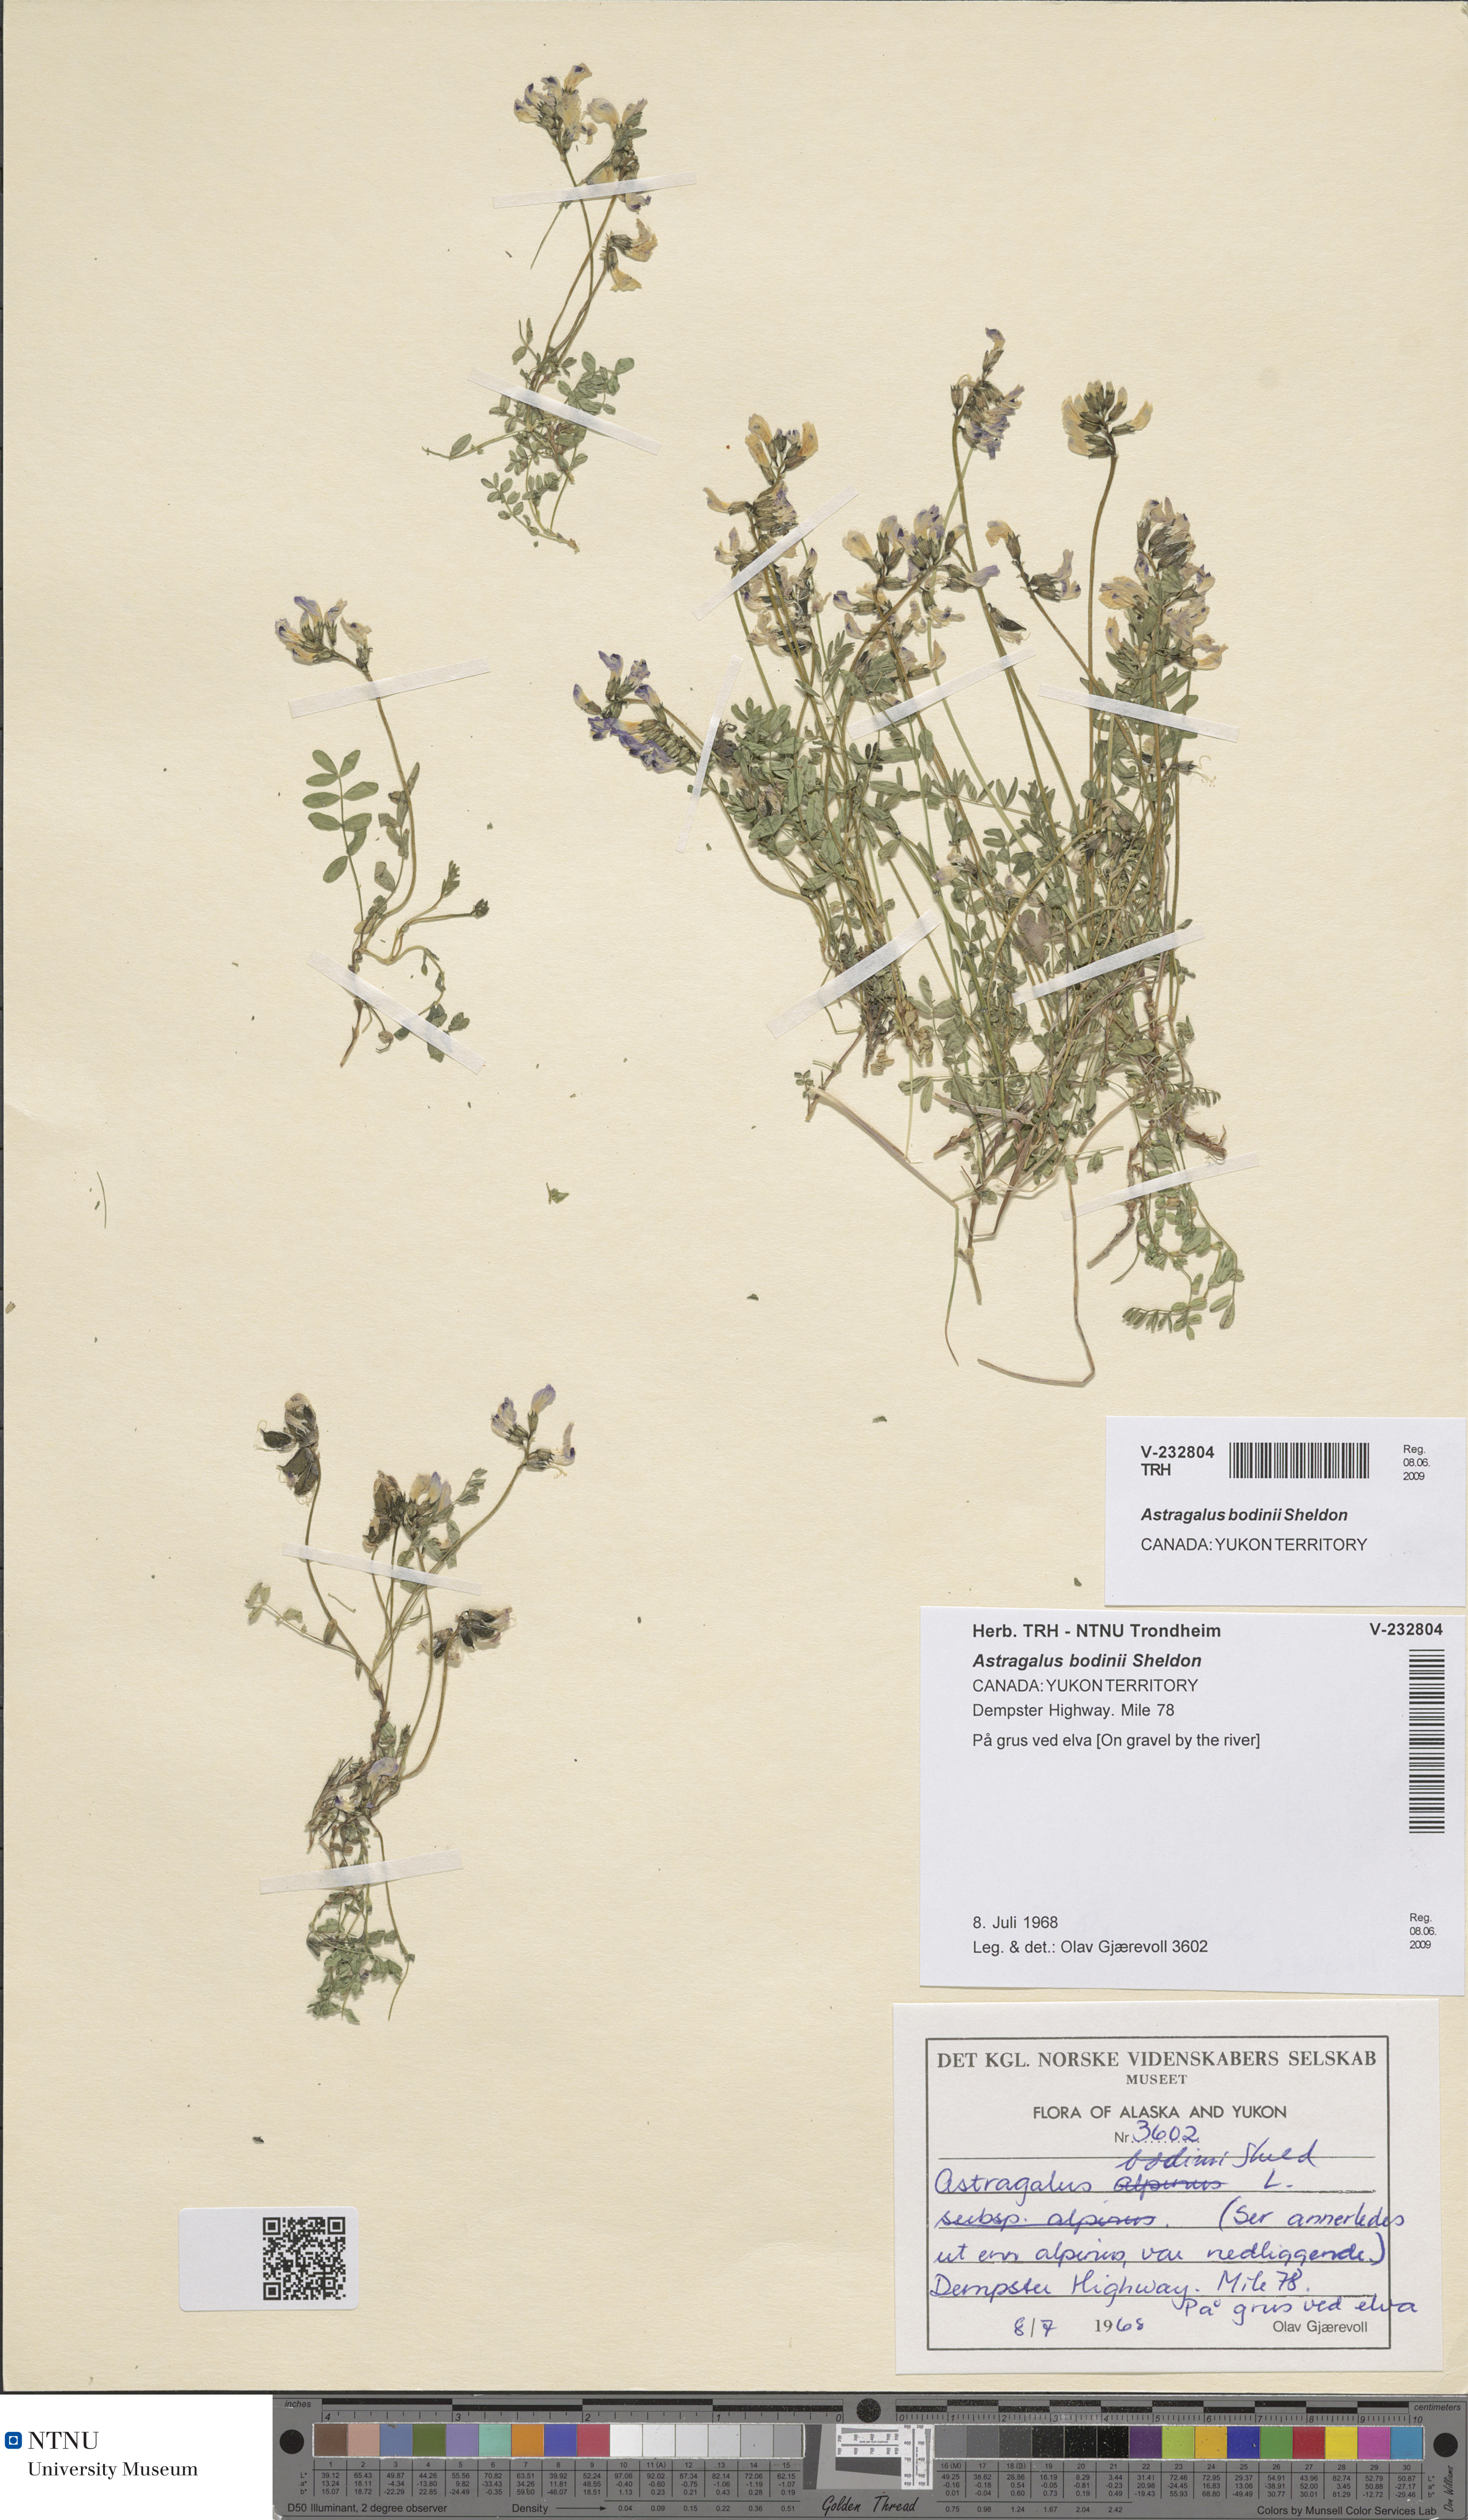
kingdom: Plantae
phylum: Tracheophyta
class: Magnoliopsida
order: Fabales
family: Fabaceae
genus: Astragalus
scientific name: Astragalus bodinii
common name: Bodin's milk-vetch
